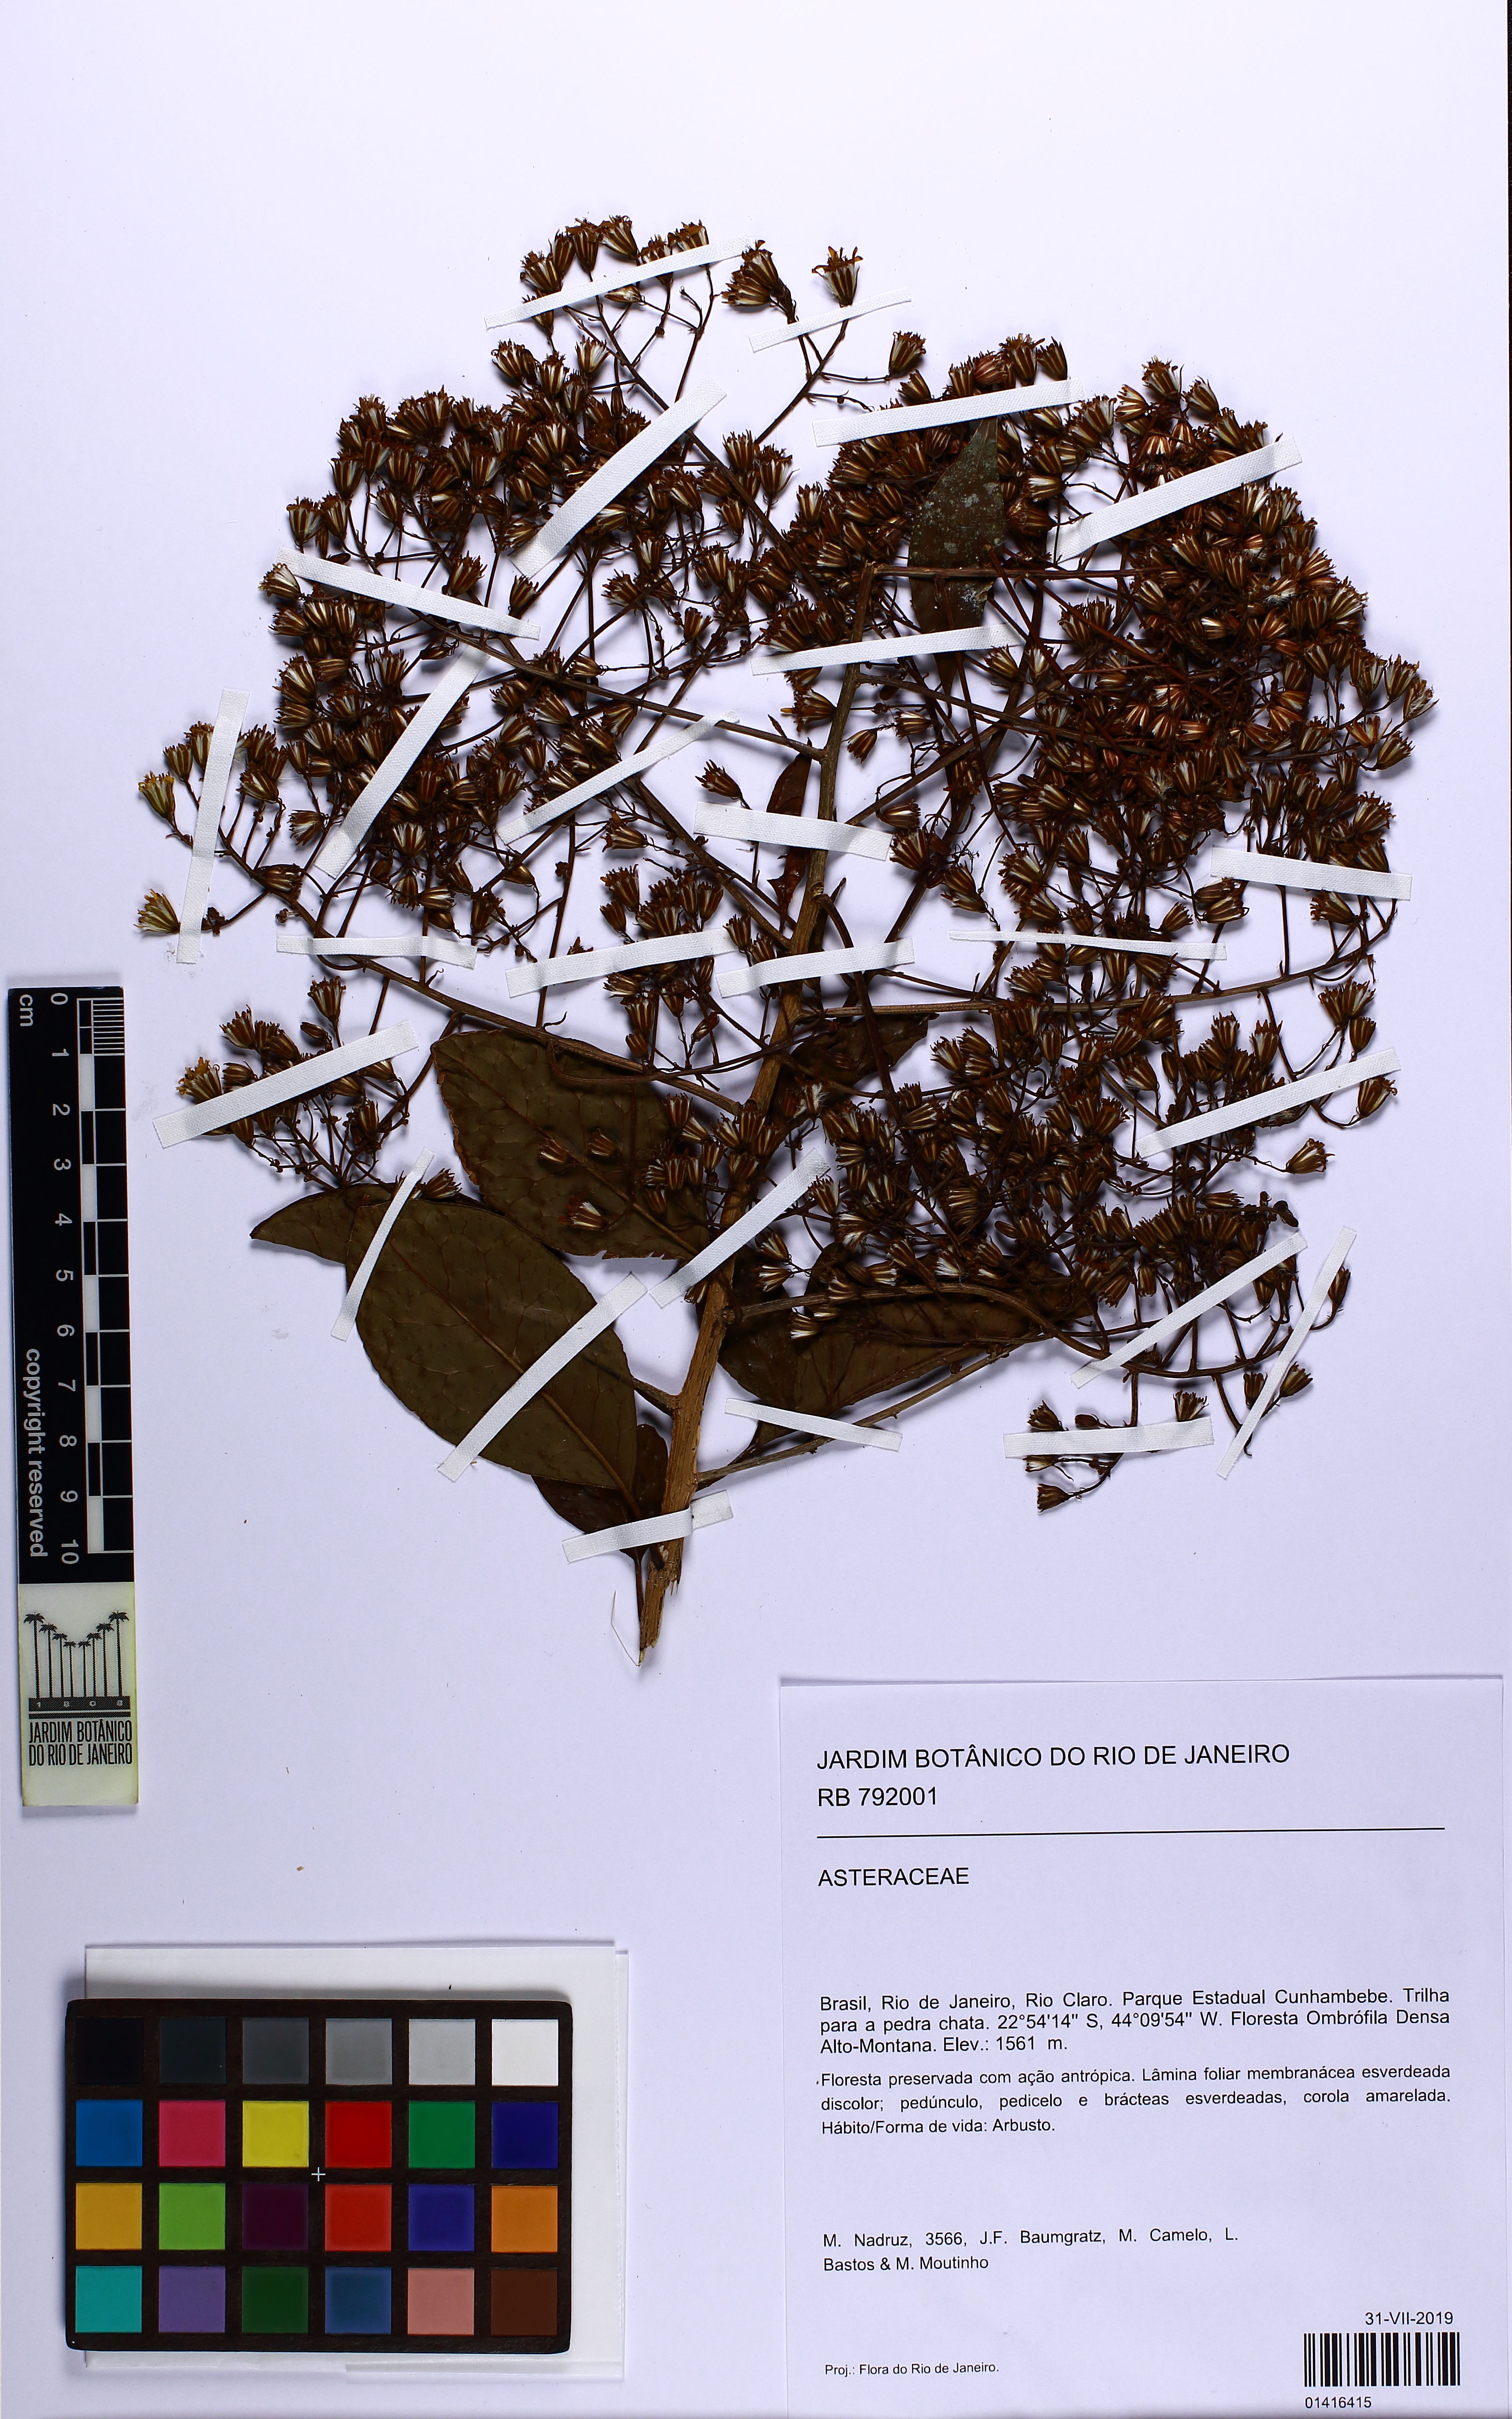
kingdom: Plantae
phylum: Tracheophyta
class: Magnoliopsida
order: Asterales
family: Asteraceae
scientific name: Asteraceae
